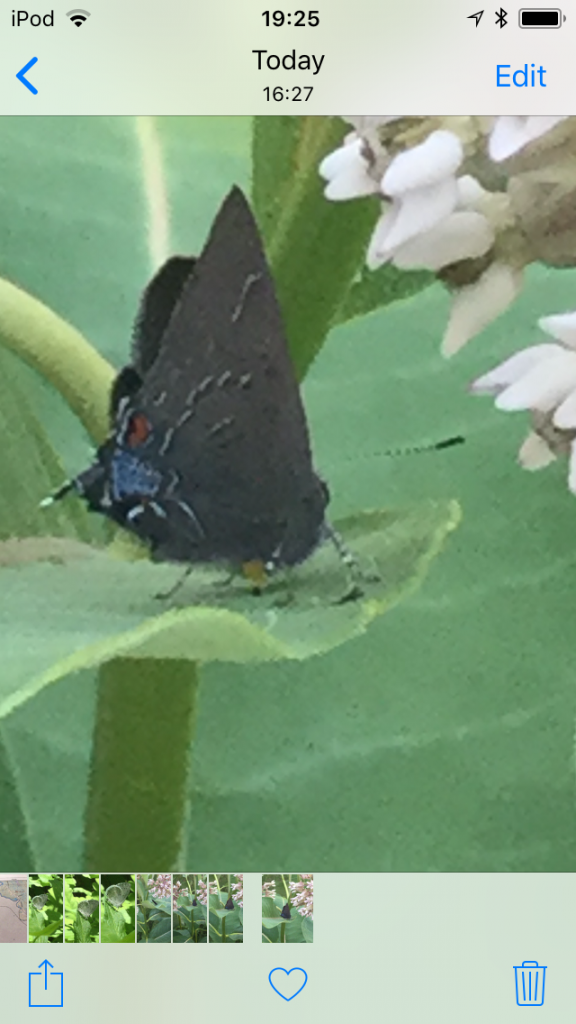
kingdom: Animalia
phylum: Arthropoda
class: Insecta
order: Lepidoptera
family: Lycaenidae
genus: Satyrium
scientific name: Satyrium calanus
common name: Banded Hairstreak
